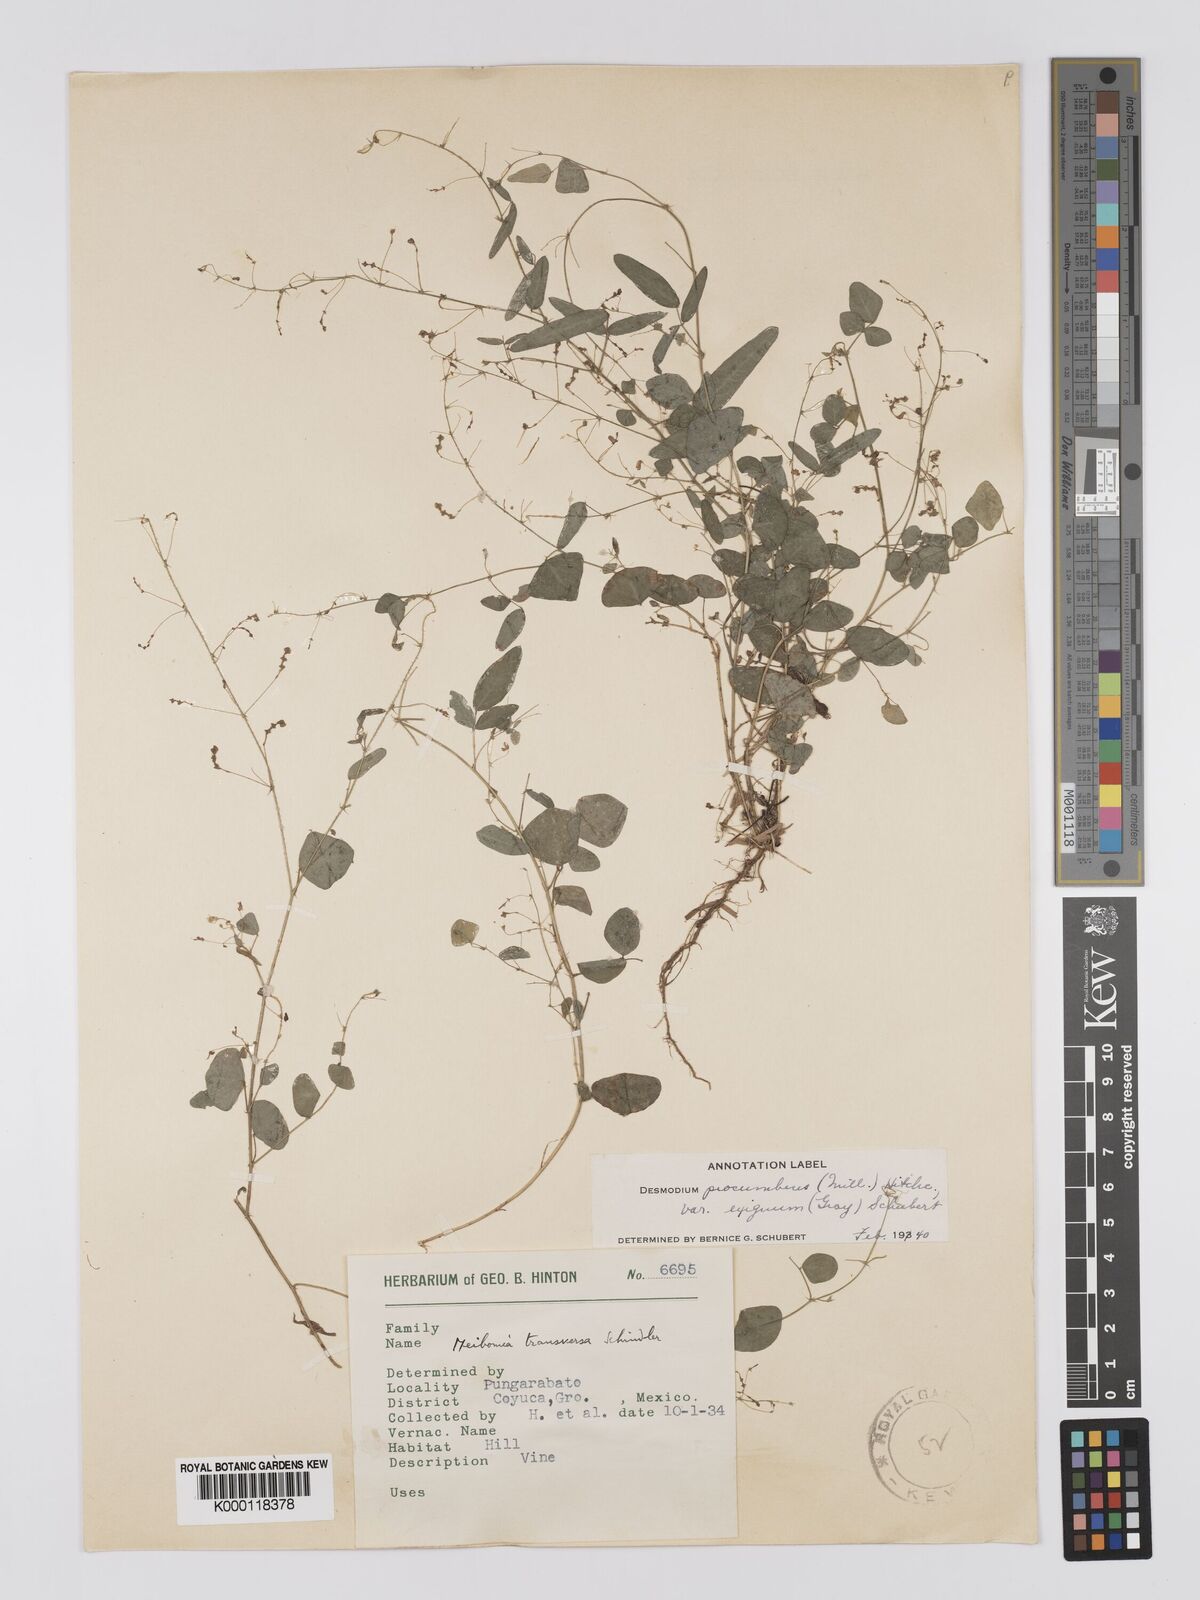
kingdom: Plantae
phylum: Tracheophyta
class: Magnoliopsida
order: Fabales
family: Fabaceae
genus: Desmodium
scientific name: Desmodium procumbens
